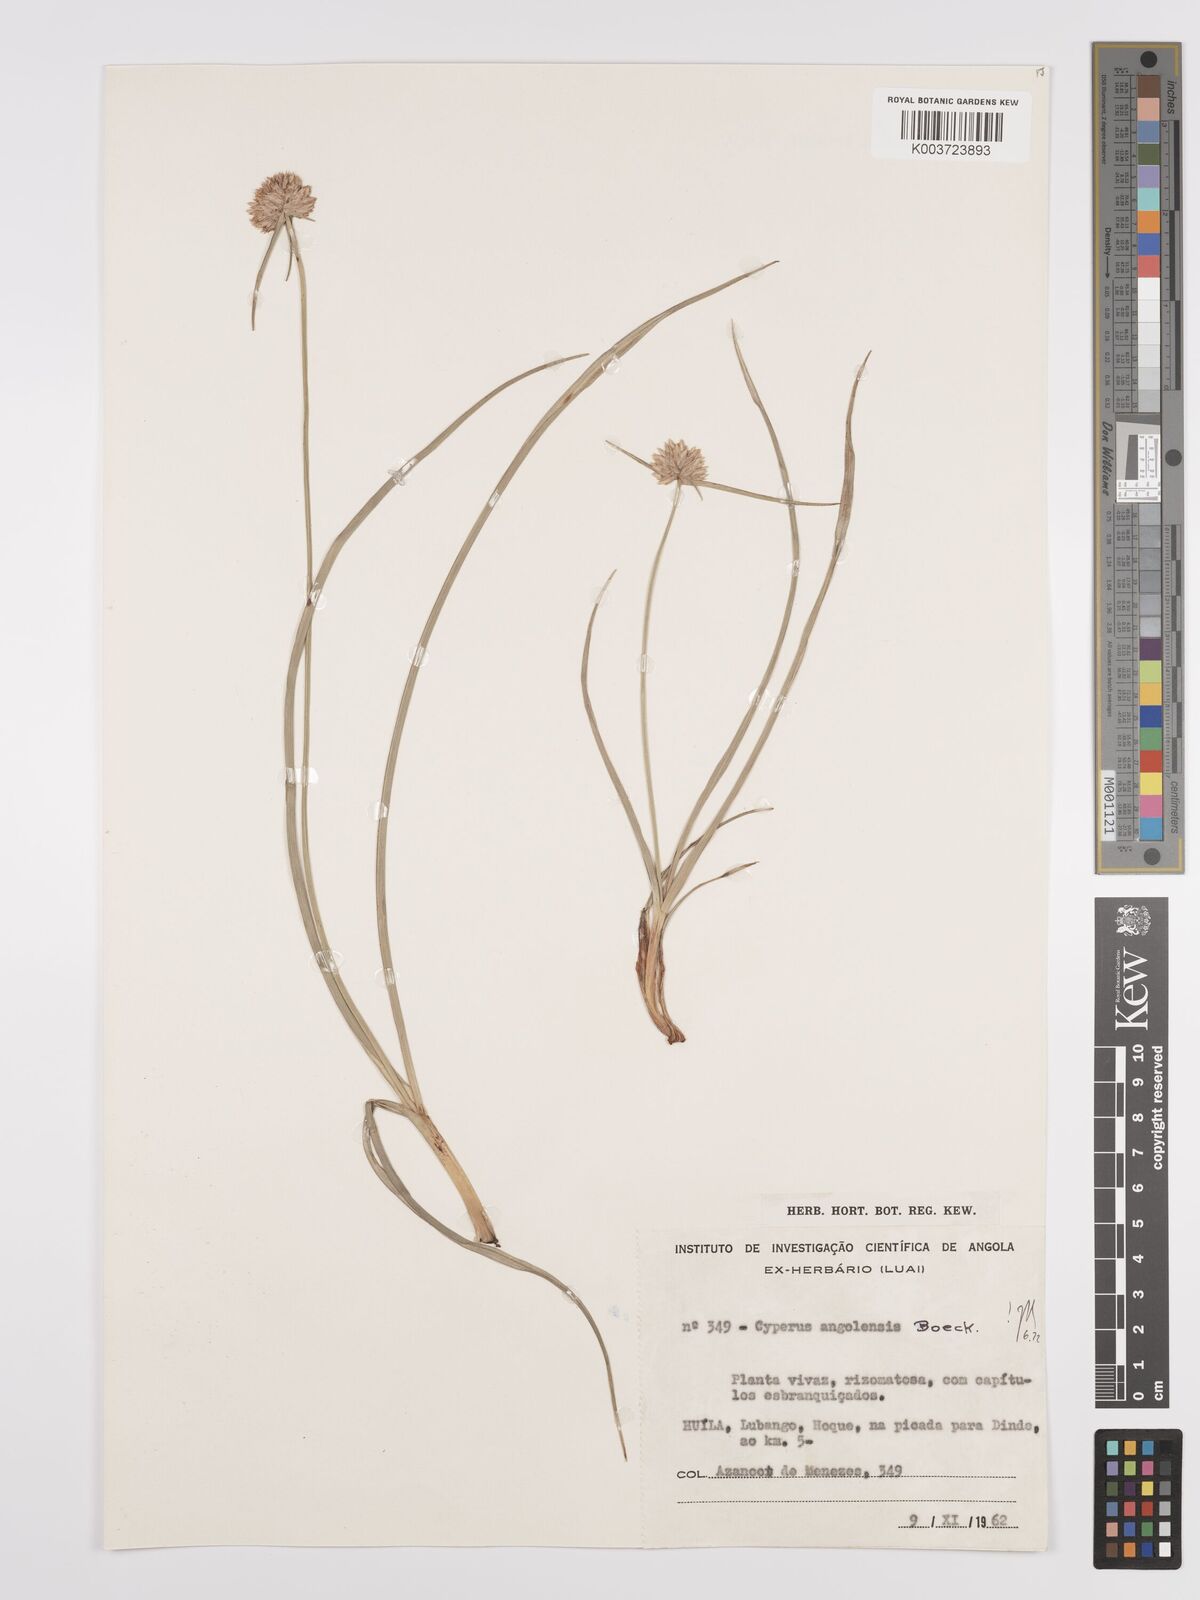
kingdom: Plantae
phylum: Tracheophyta
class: Liliopsida
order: Poales
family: Cyperaceae
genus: Cyperus
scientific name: Cyperus angolensis
